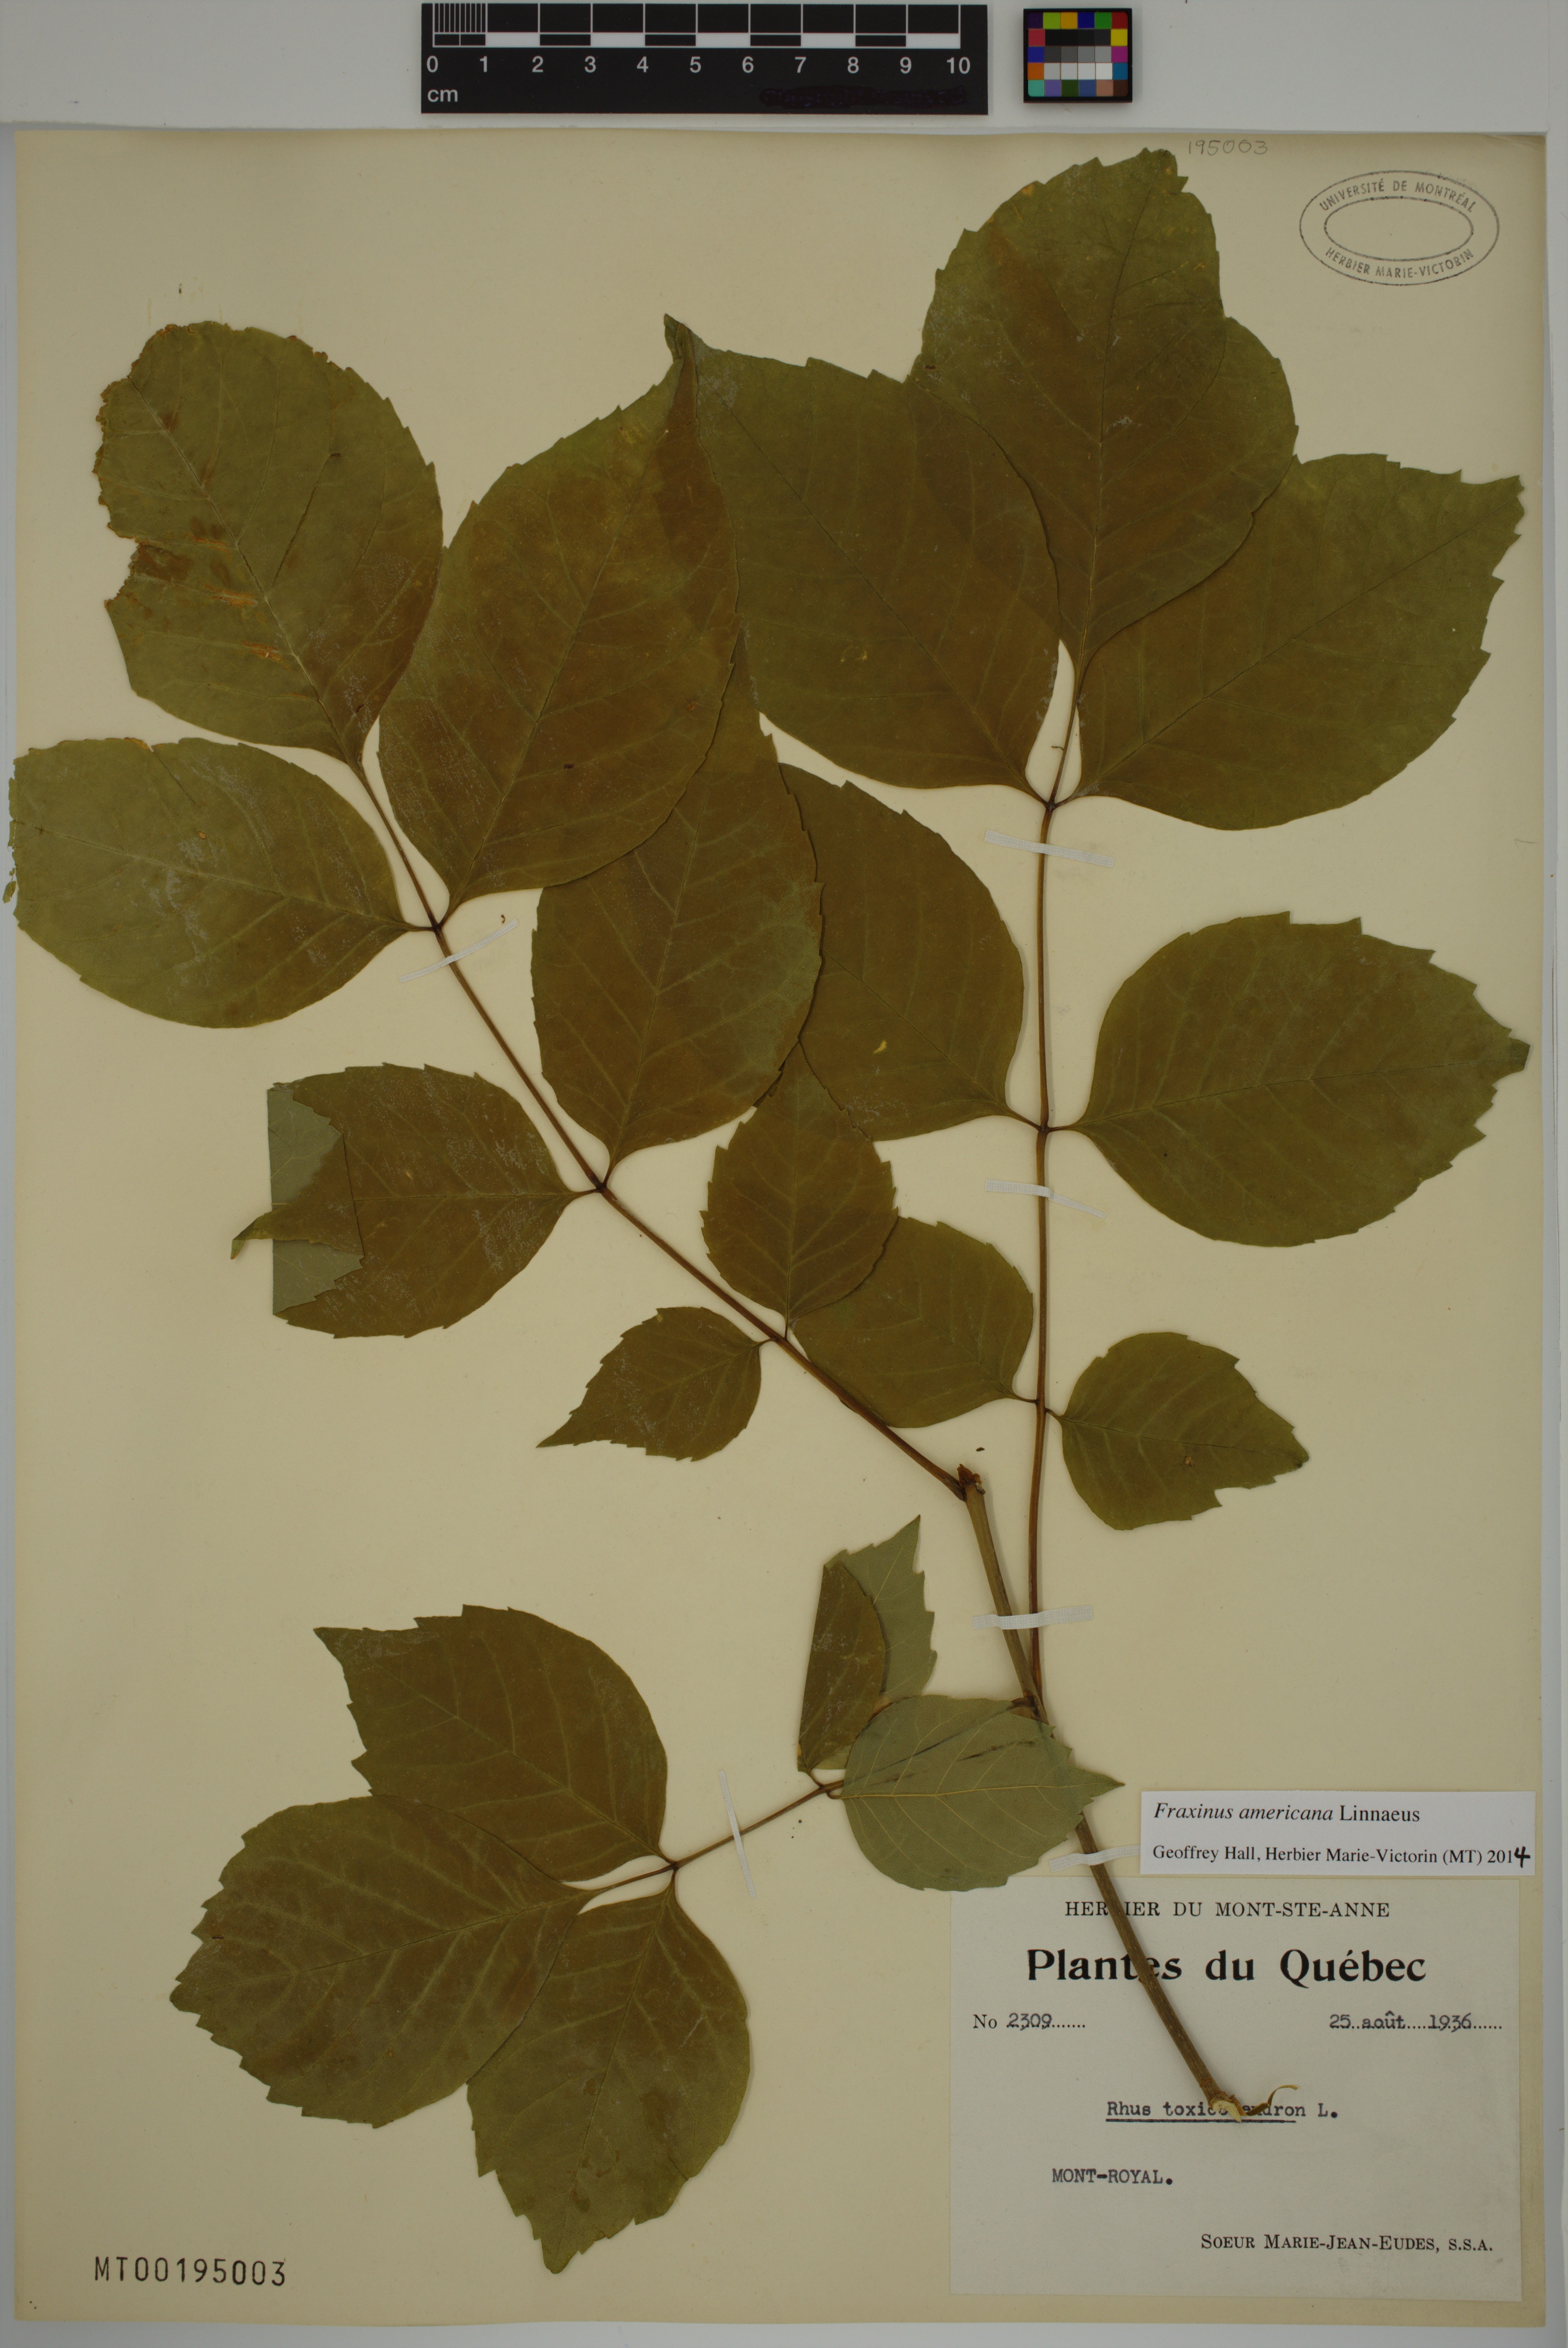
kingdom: Plantae
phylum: Tracheophyta
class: Magnoliopsida
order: Lamiales
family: Oleaceae
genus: Fraxinus
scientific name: Fraxinus americana
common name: White ash
